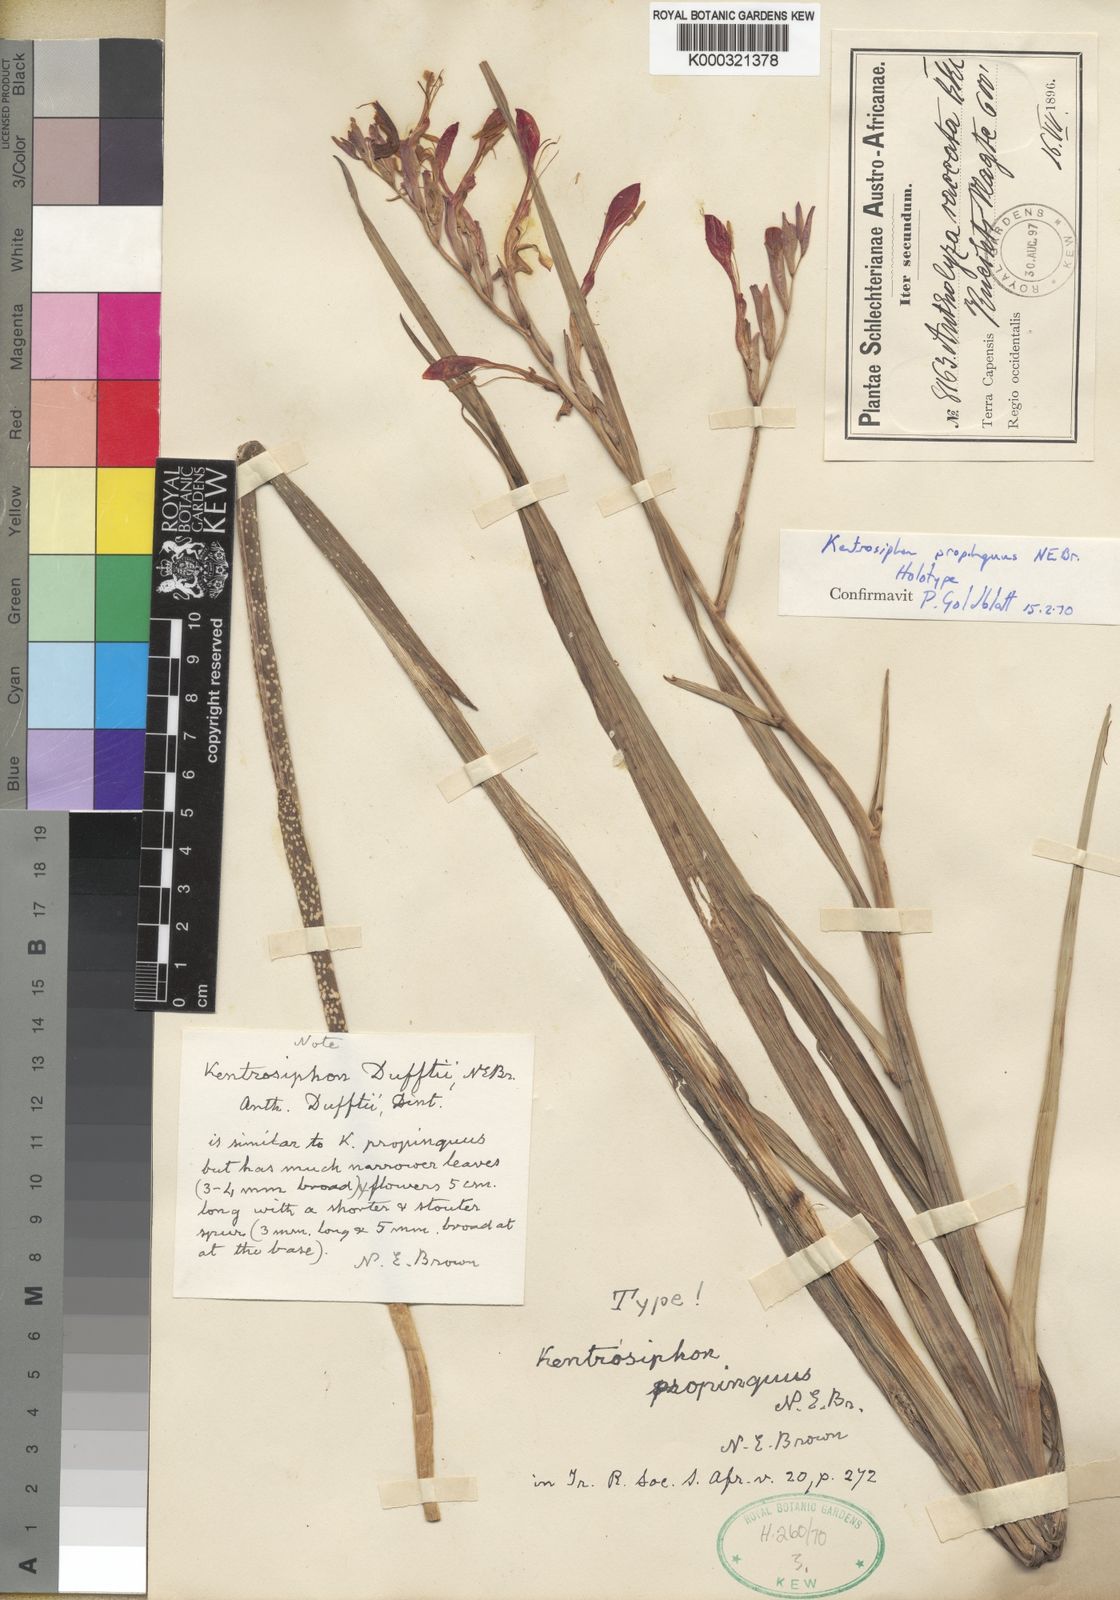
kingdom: Plantae
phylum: Tracheophyta
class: Liliopsida
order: Asparagales
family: Iridaceae
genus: Gladiolus
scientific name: Gladiolus saccatus
